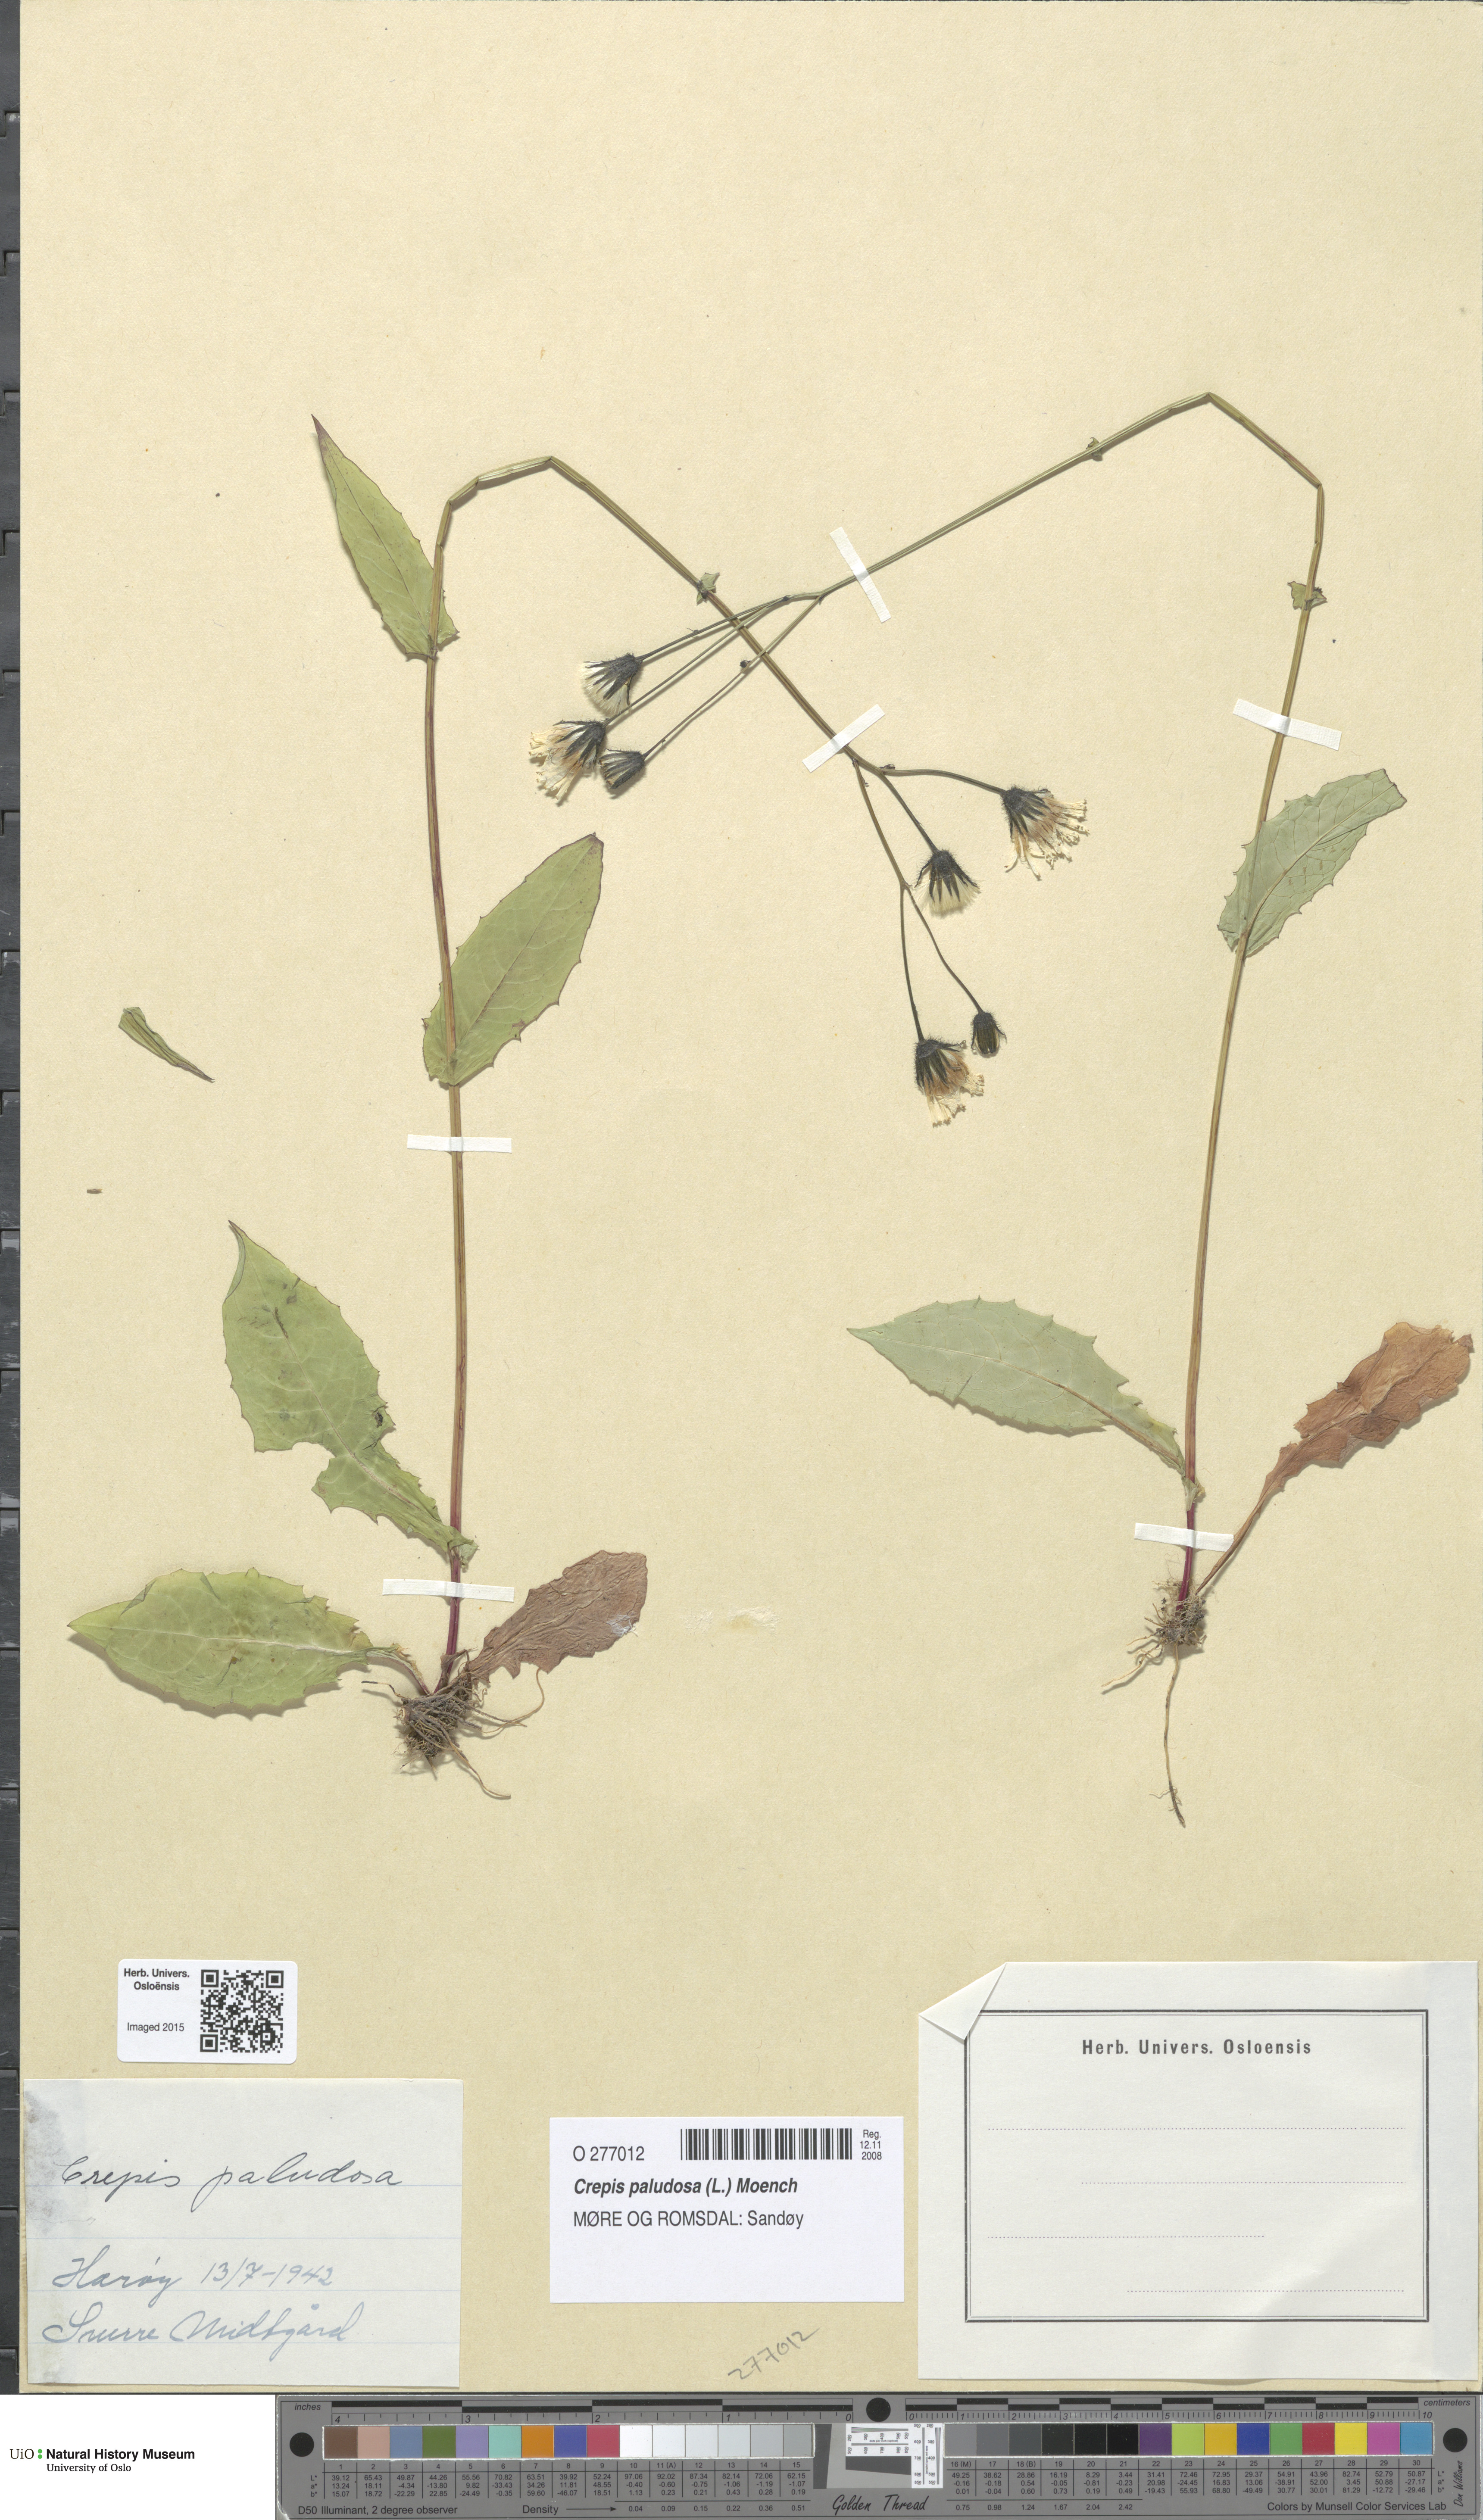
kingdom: Plantae
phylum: Tracheophyta
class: Magnoliopsida
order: Asterales
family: Asteraceae
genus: Crepis
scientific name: Crepis paludosa
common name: Marsh hawk's-beard
